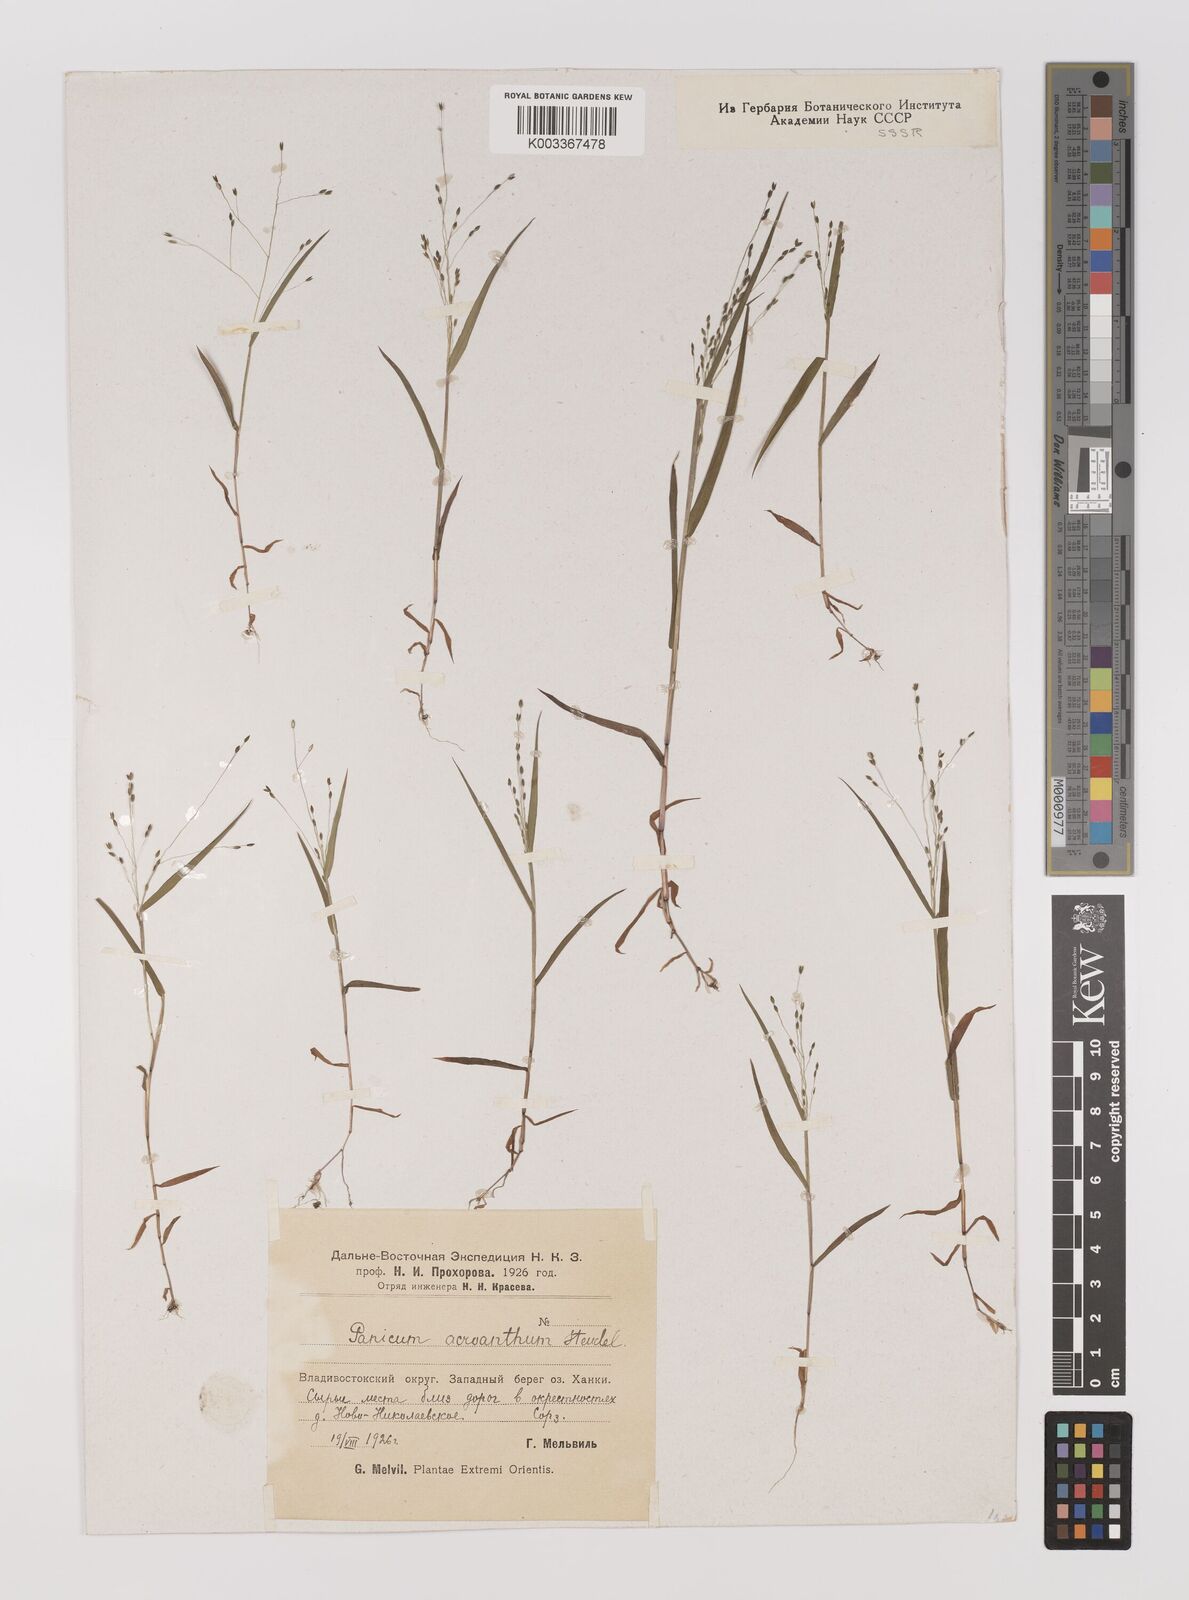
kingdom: Plantae
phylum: Tracheophyta
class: Liliopsida
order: Poales
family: Poaceae
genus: Panicum
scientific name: Panicum bisulcatum
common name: Japanese panicgrass
